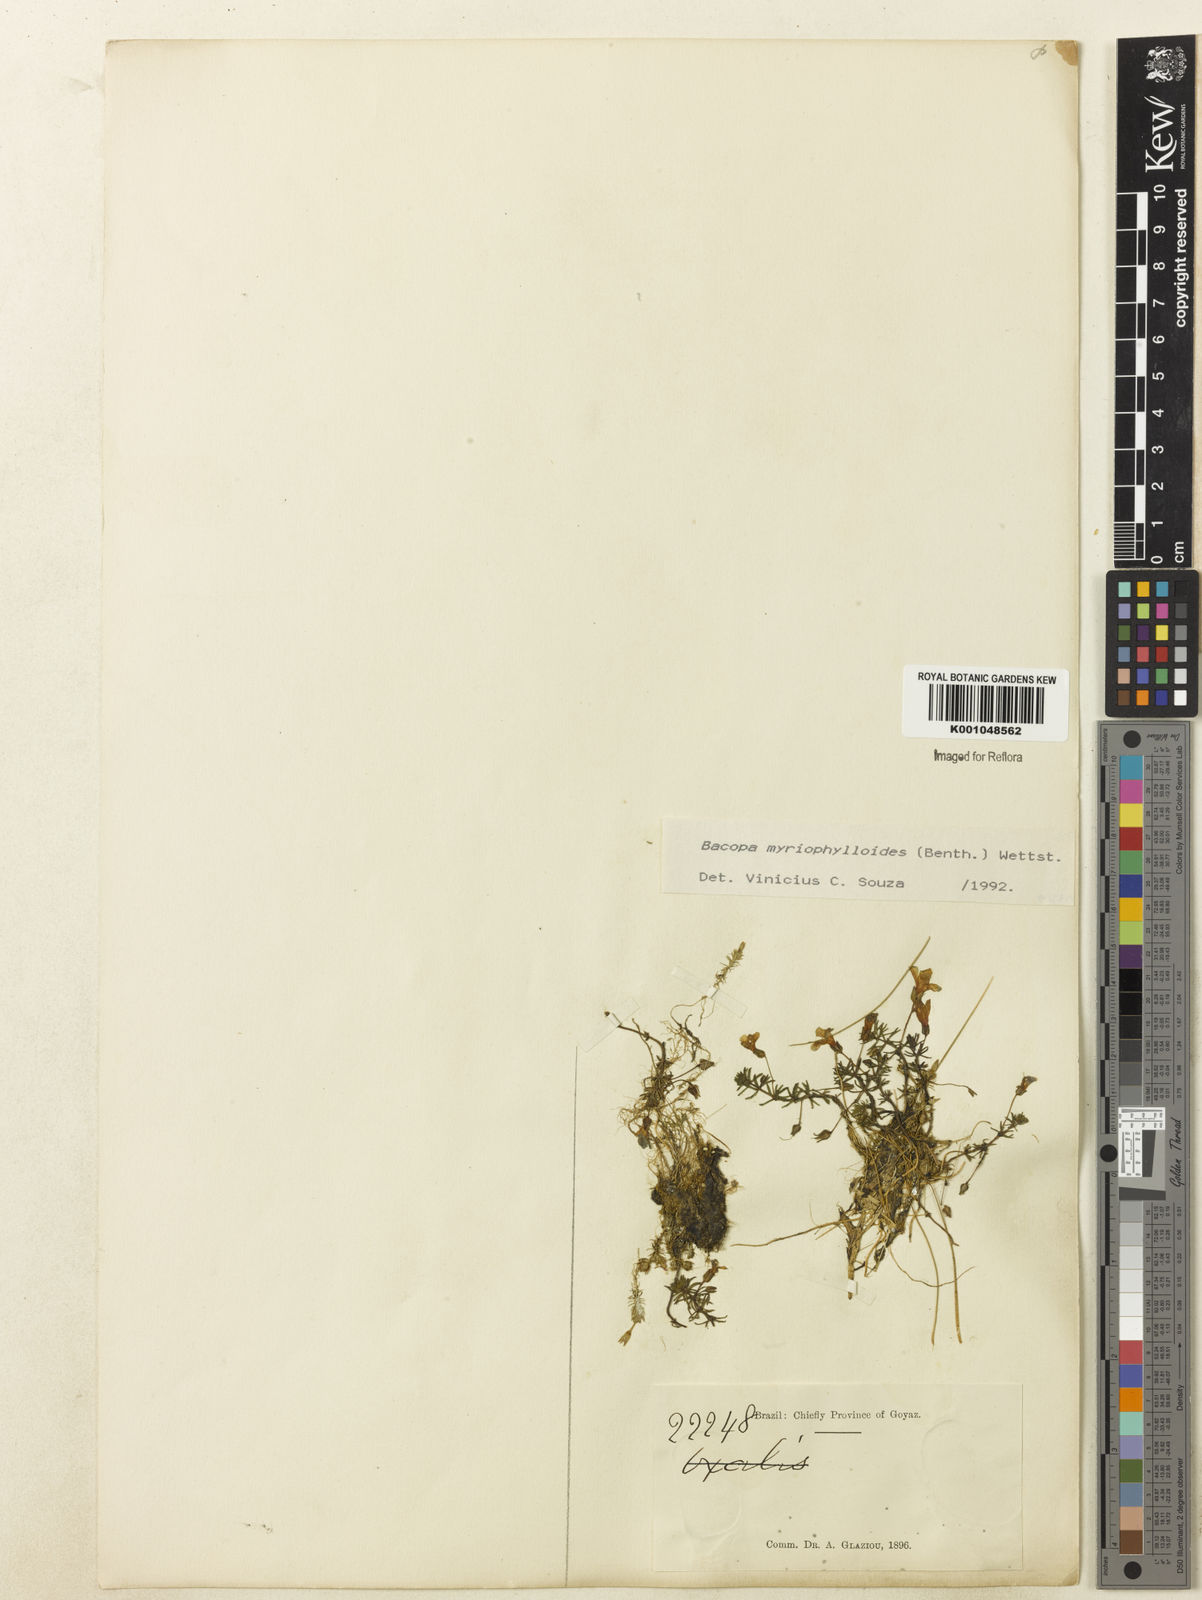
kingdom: Plantae
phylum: Tracheophyta
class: Magnoliopsida
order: Lamiales
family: Plantaginaceae
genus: Bacopa
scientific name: Bacopa myriophylloides
